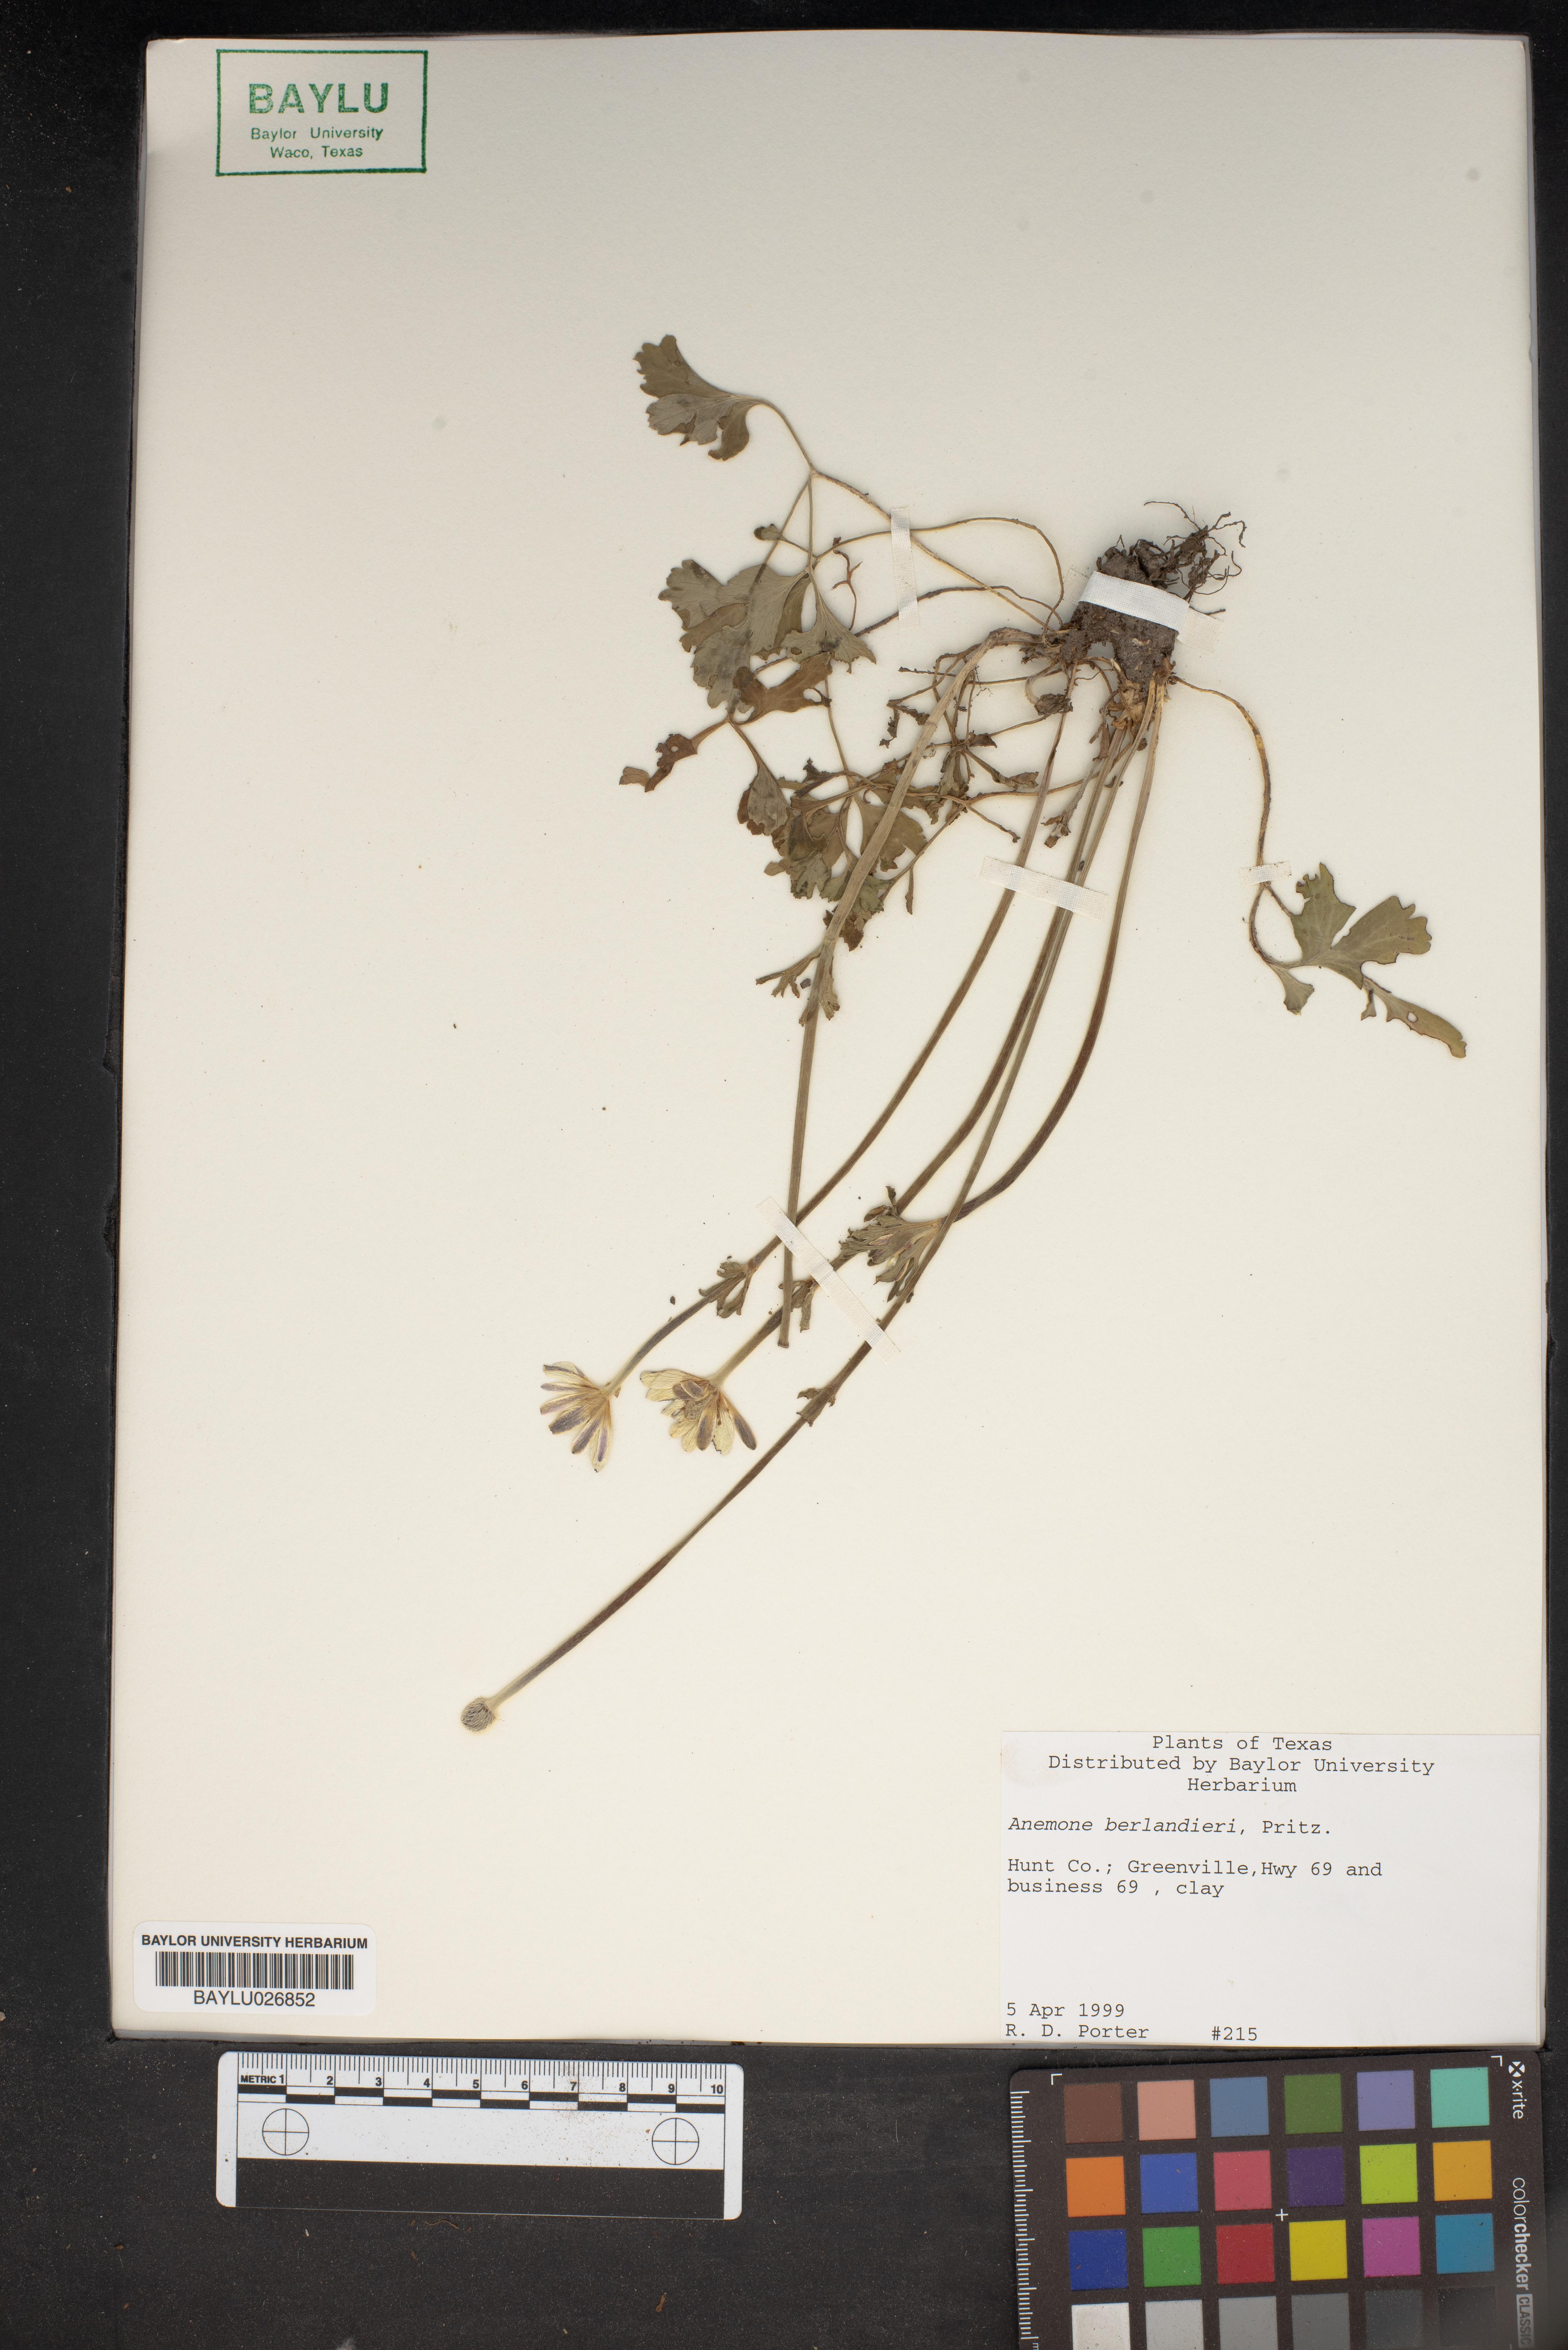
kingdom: Plantae
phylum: Tracheophyta
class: Magnoliopsida
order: Ranunculales
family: Ranunculaceae
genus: Anemone
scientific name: Anemone berlandieri
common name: Ten-petal anemone
